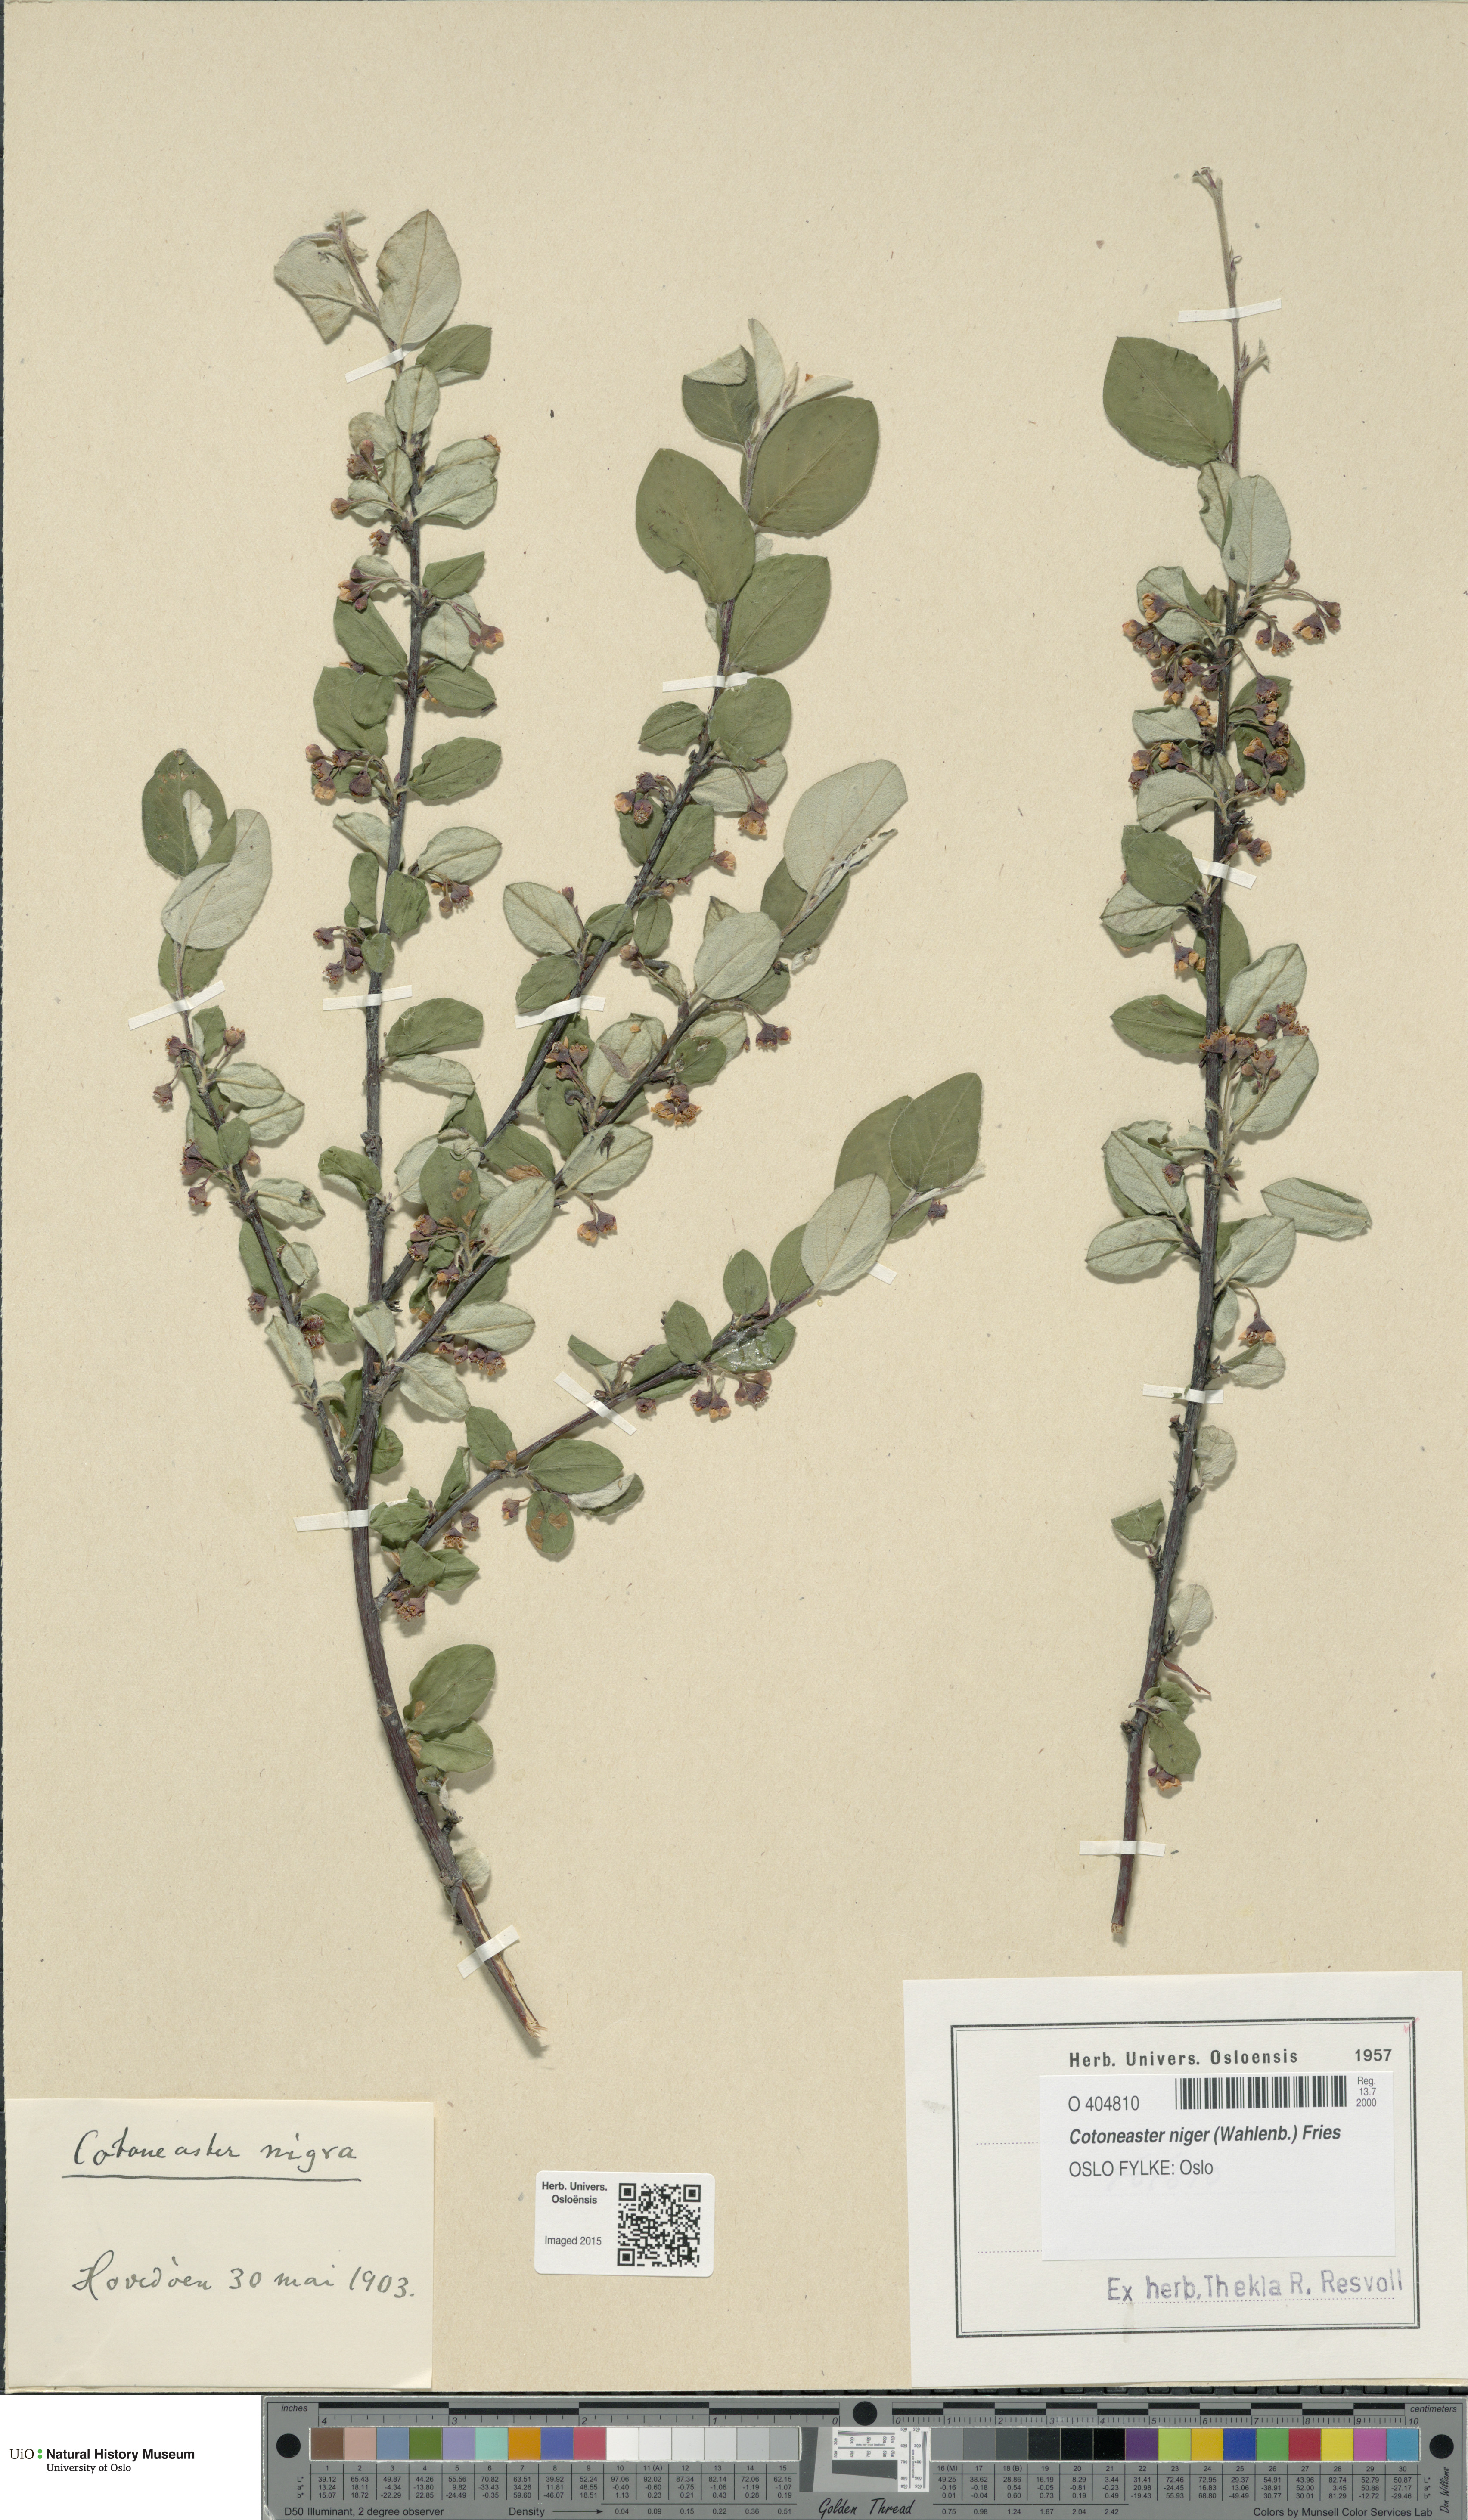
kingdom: Plantae
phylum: Tracheophyta
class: Magnoliopsida
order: Rosales
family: Rosaceae
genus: Cotoneaster
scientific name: Cotoneaster niger
